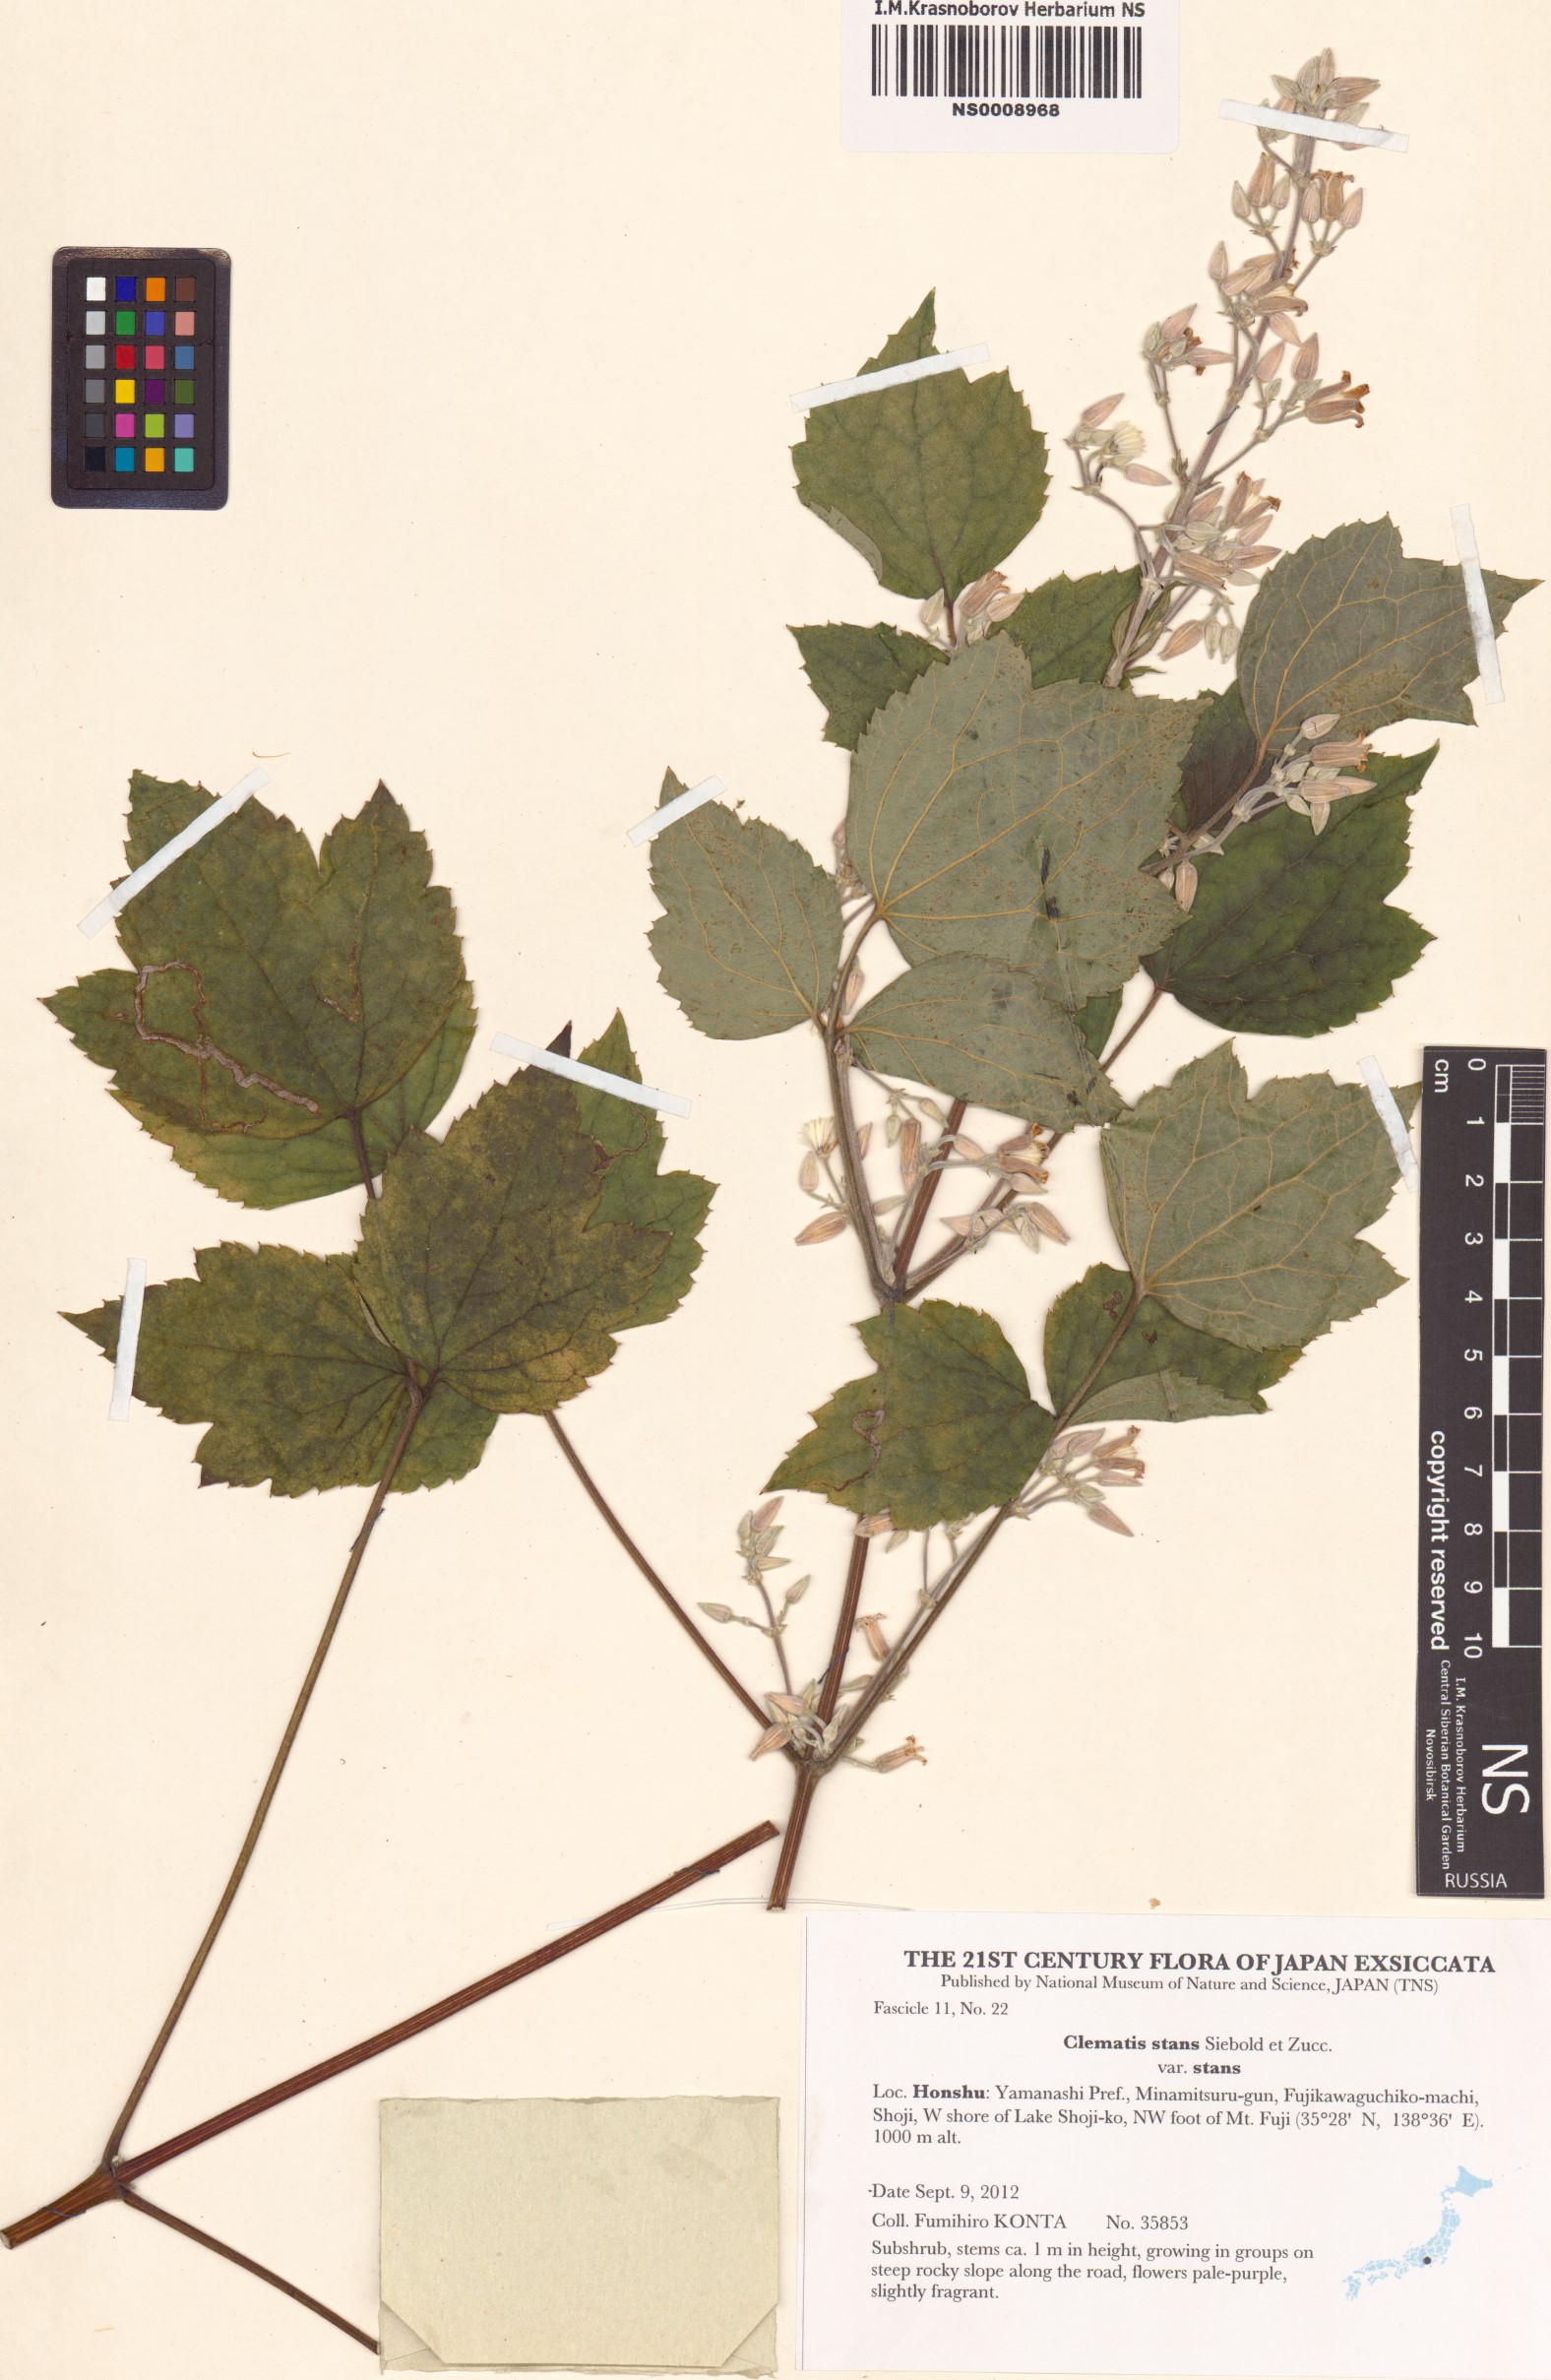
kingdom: Plantae
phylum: Tracheophyta
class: Magnoliopsida
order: Ranunculales
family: Ranunculaceae
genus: Clematis
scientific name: Clematis stans
